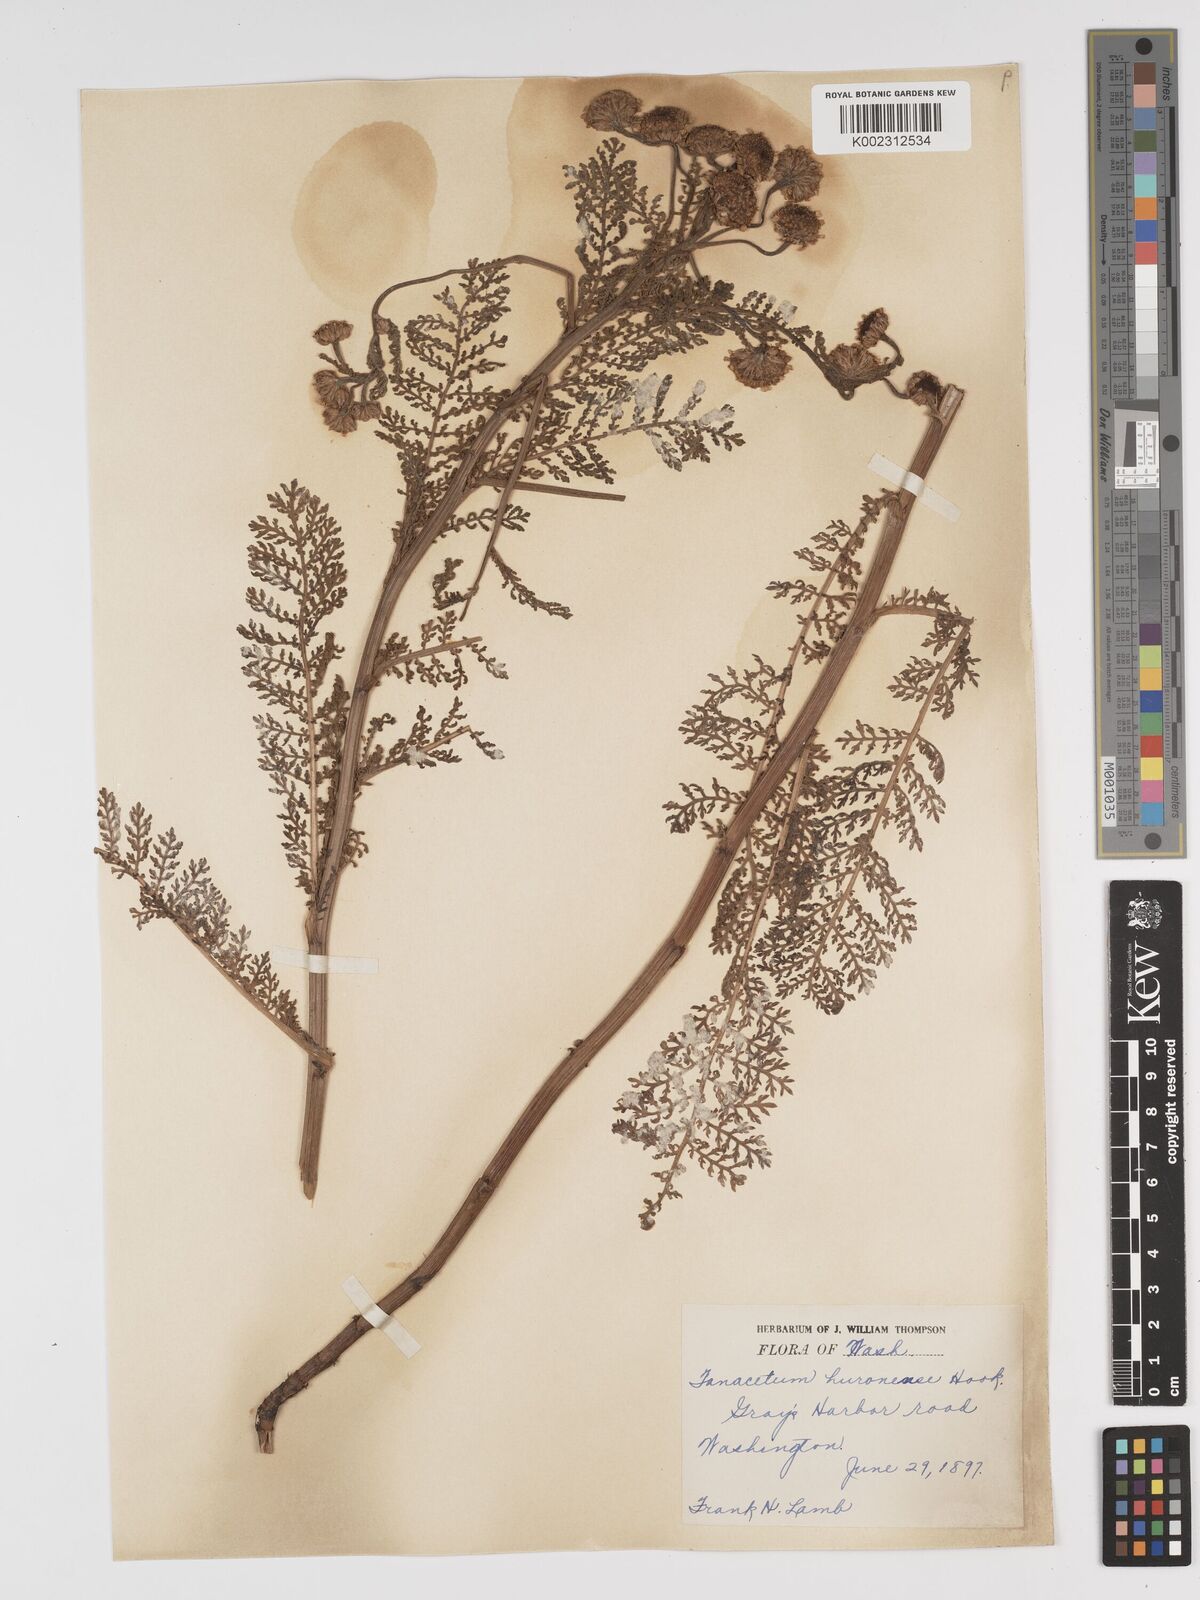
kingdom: Plantae
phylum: Tracheophyta
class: Magnoliopsida
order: Asterales
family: Asteraceae
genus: Tanacetum
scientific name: Tanacetum bipinnatum
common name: Dwarf tansy
